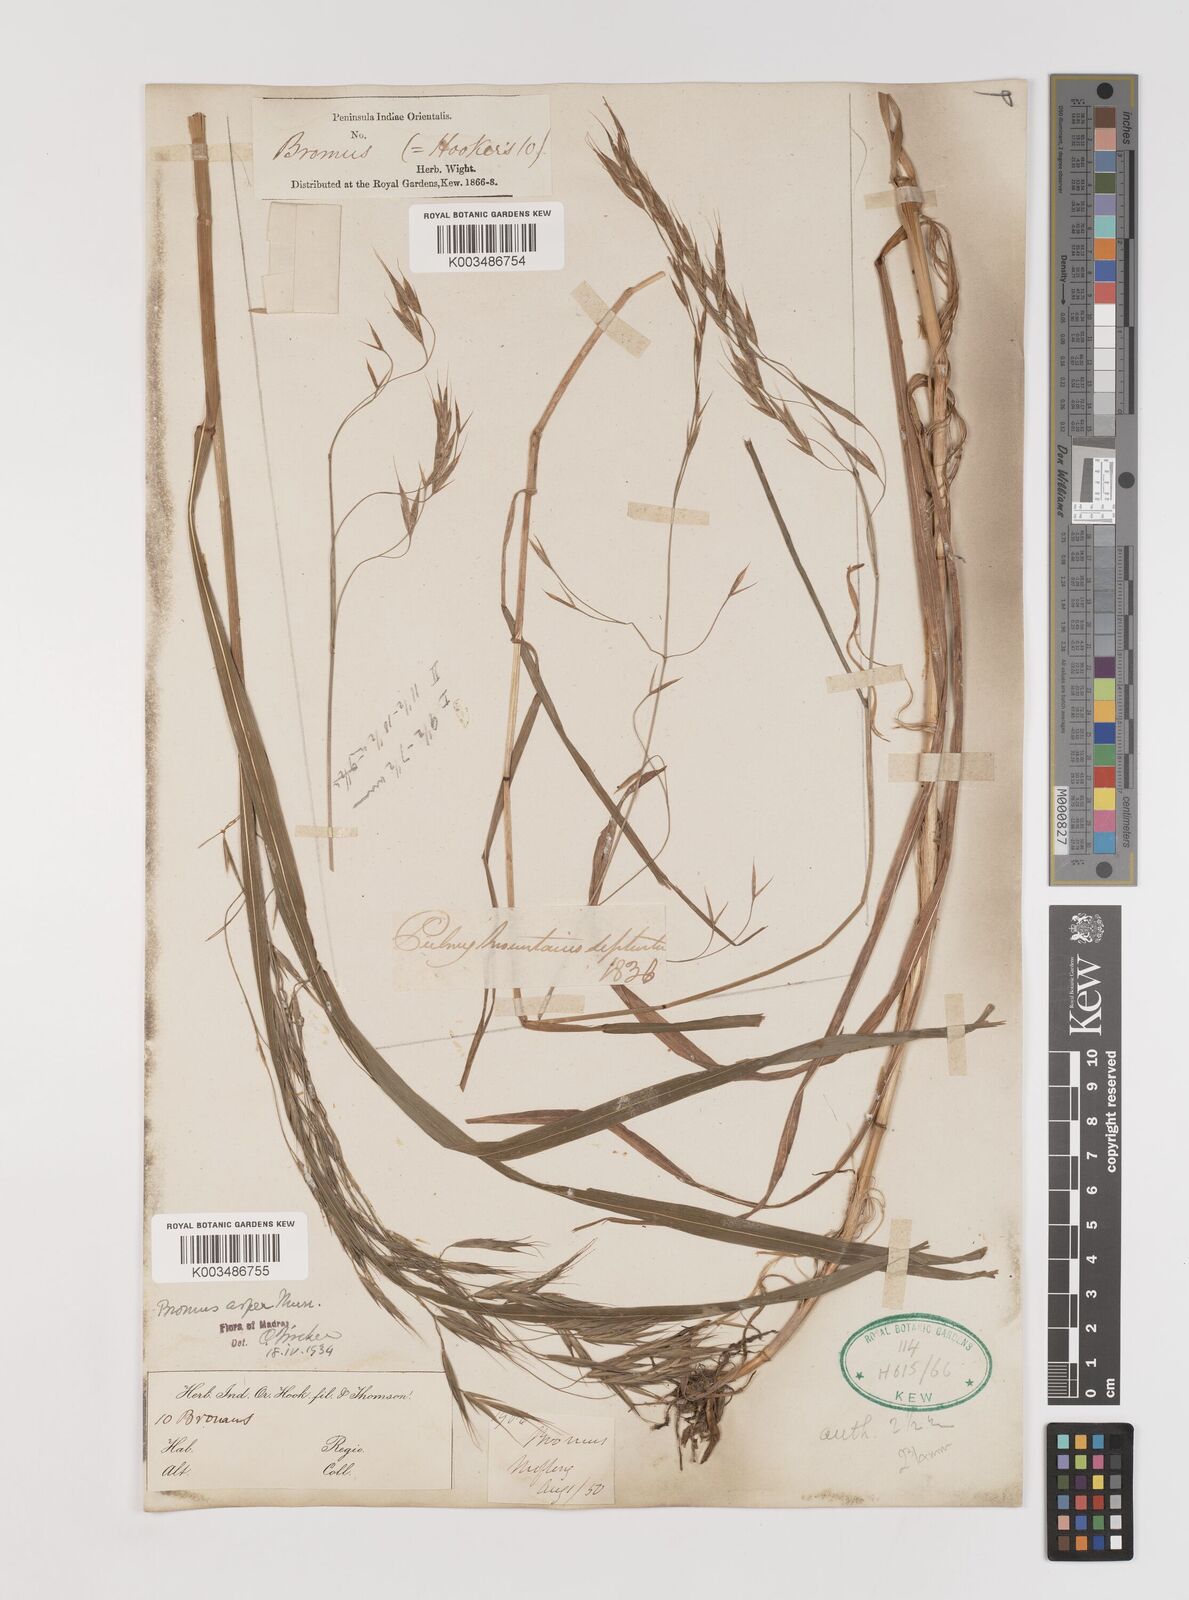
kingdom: Plantae
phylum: Tracheophyta
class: Liliopsida
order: Poales
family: Poaceae
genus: Brachypodium
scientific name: Brachypodium retusum
